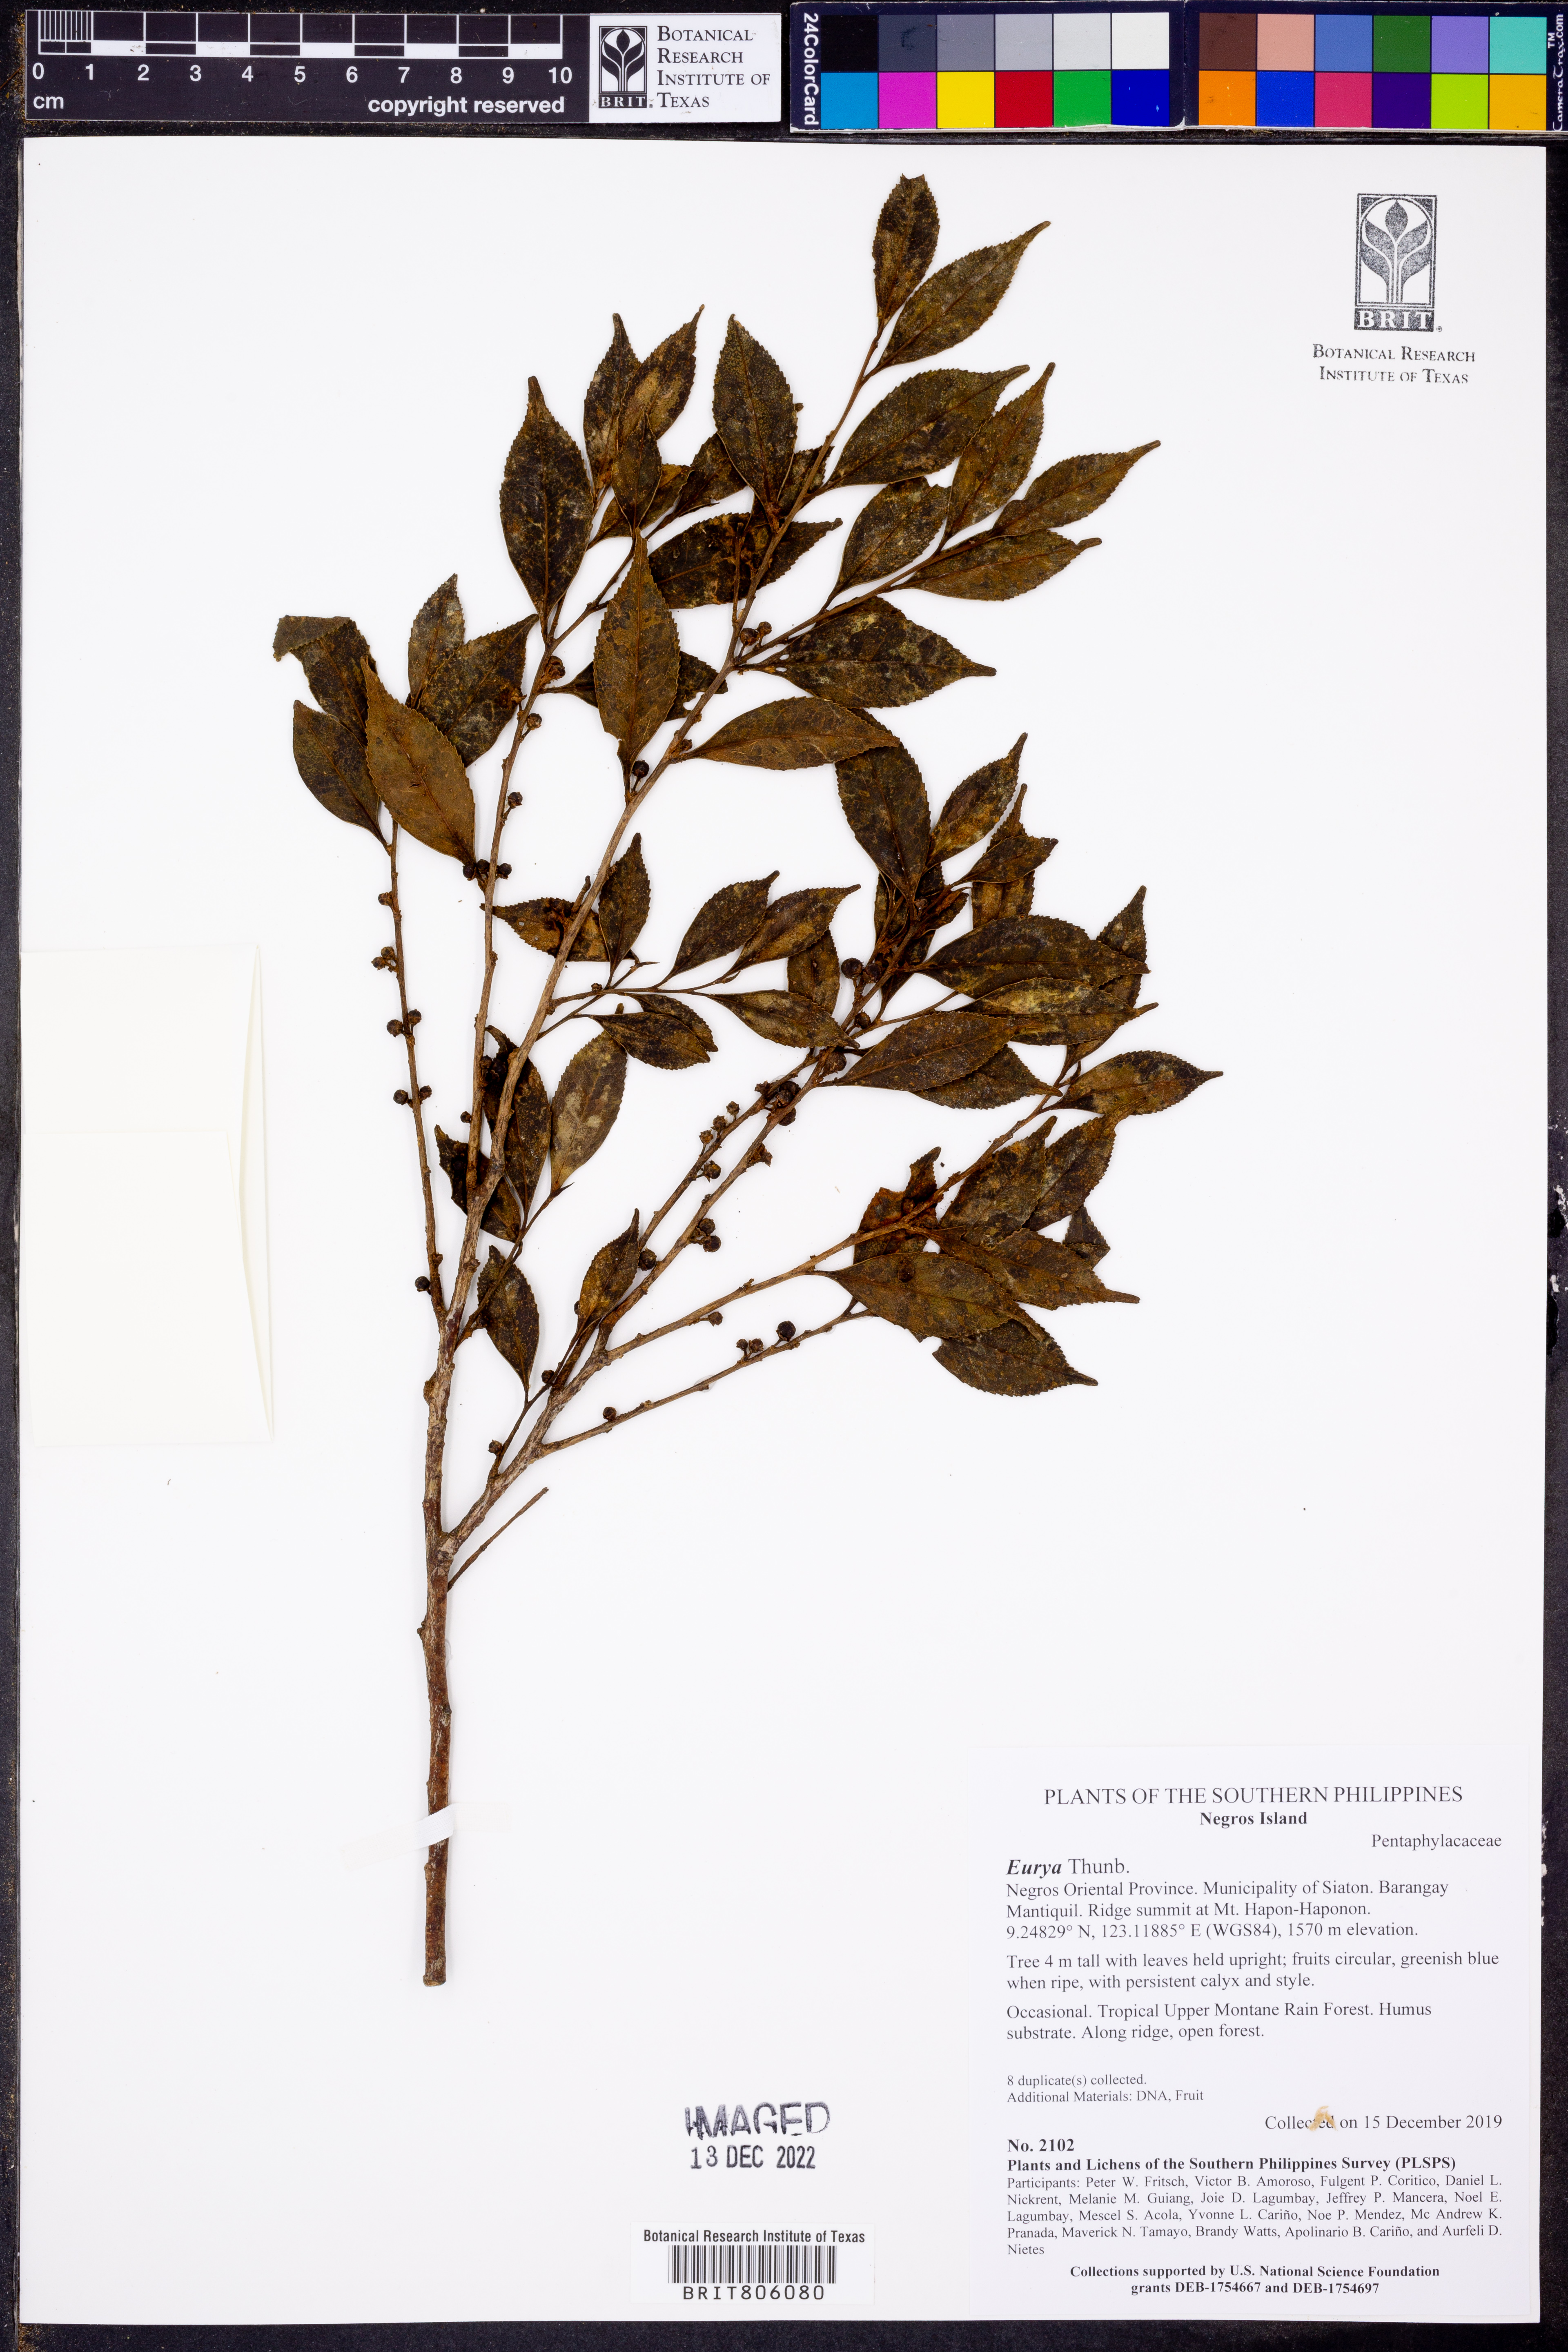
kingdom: Plantae
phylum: Tracheophyta
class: Magnoliopsida
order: Ericales
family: Pentaphylacaceae
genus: Eurya
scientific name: Eurya
